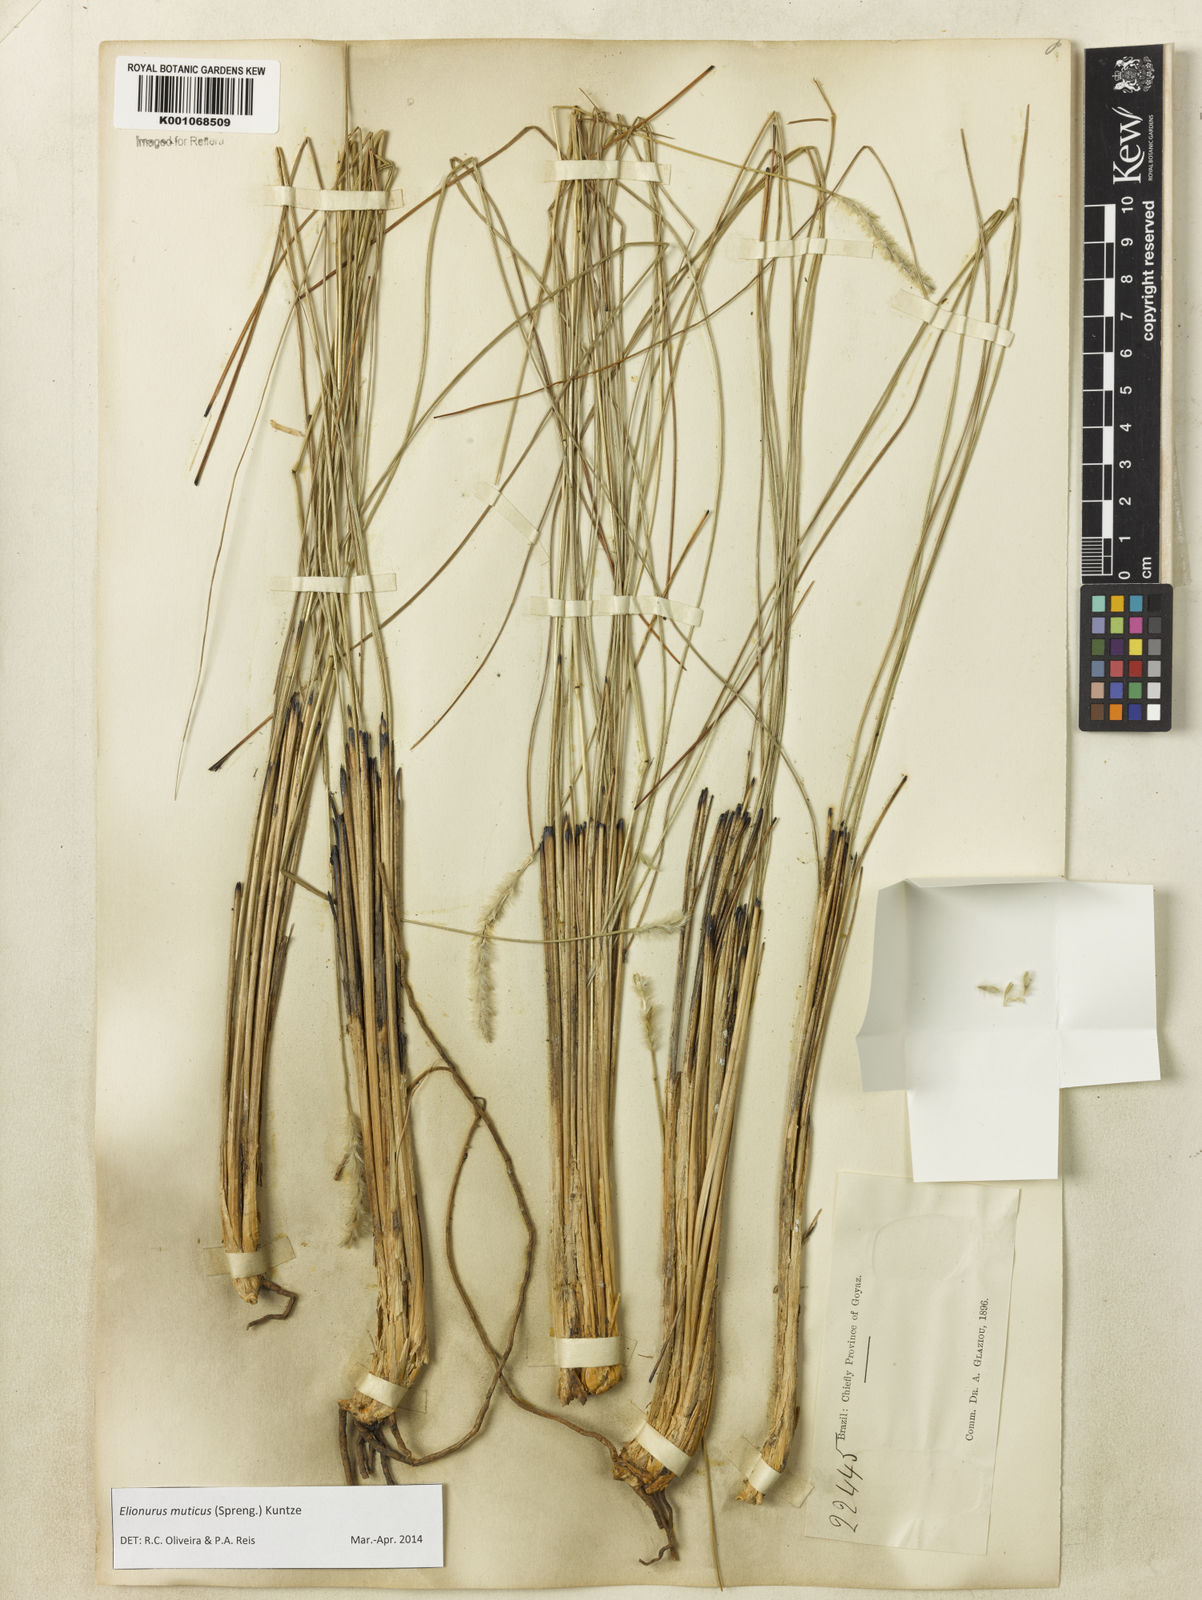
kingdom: Plantae
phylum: Tracheophyta
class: Liliopsida
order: Poales
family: Poaceae
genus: Elionurus
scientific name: Elionurus muticus
